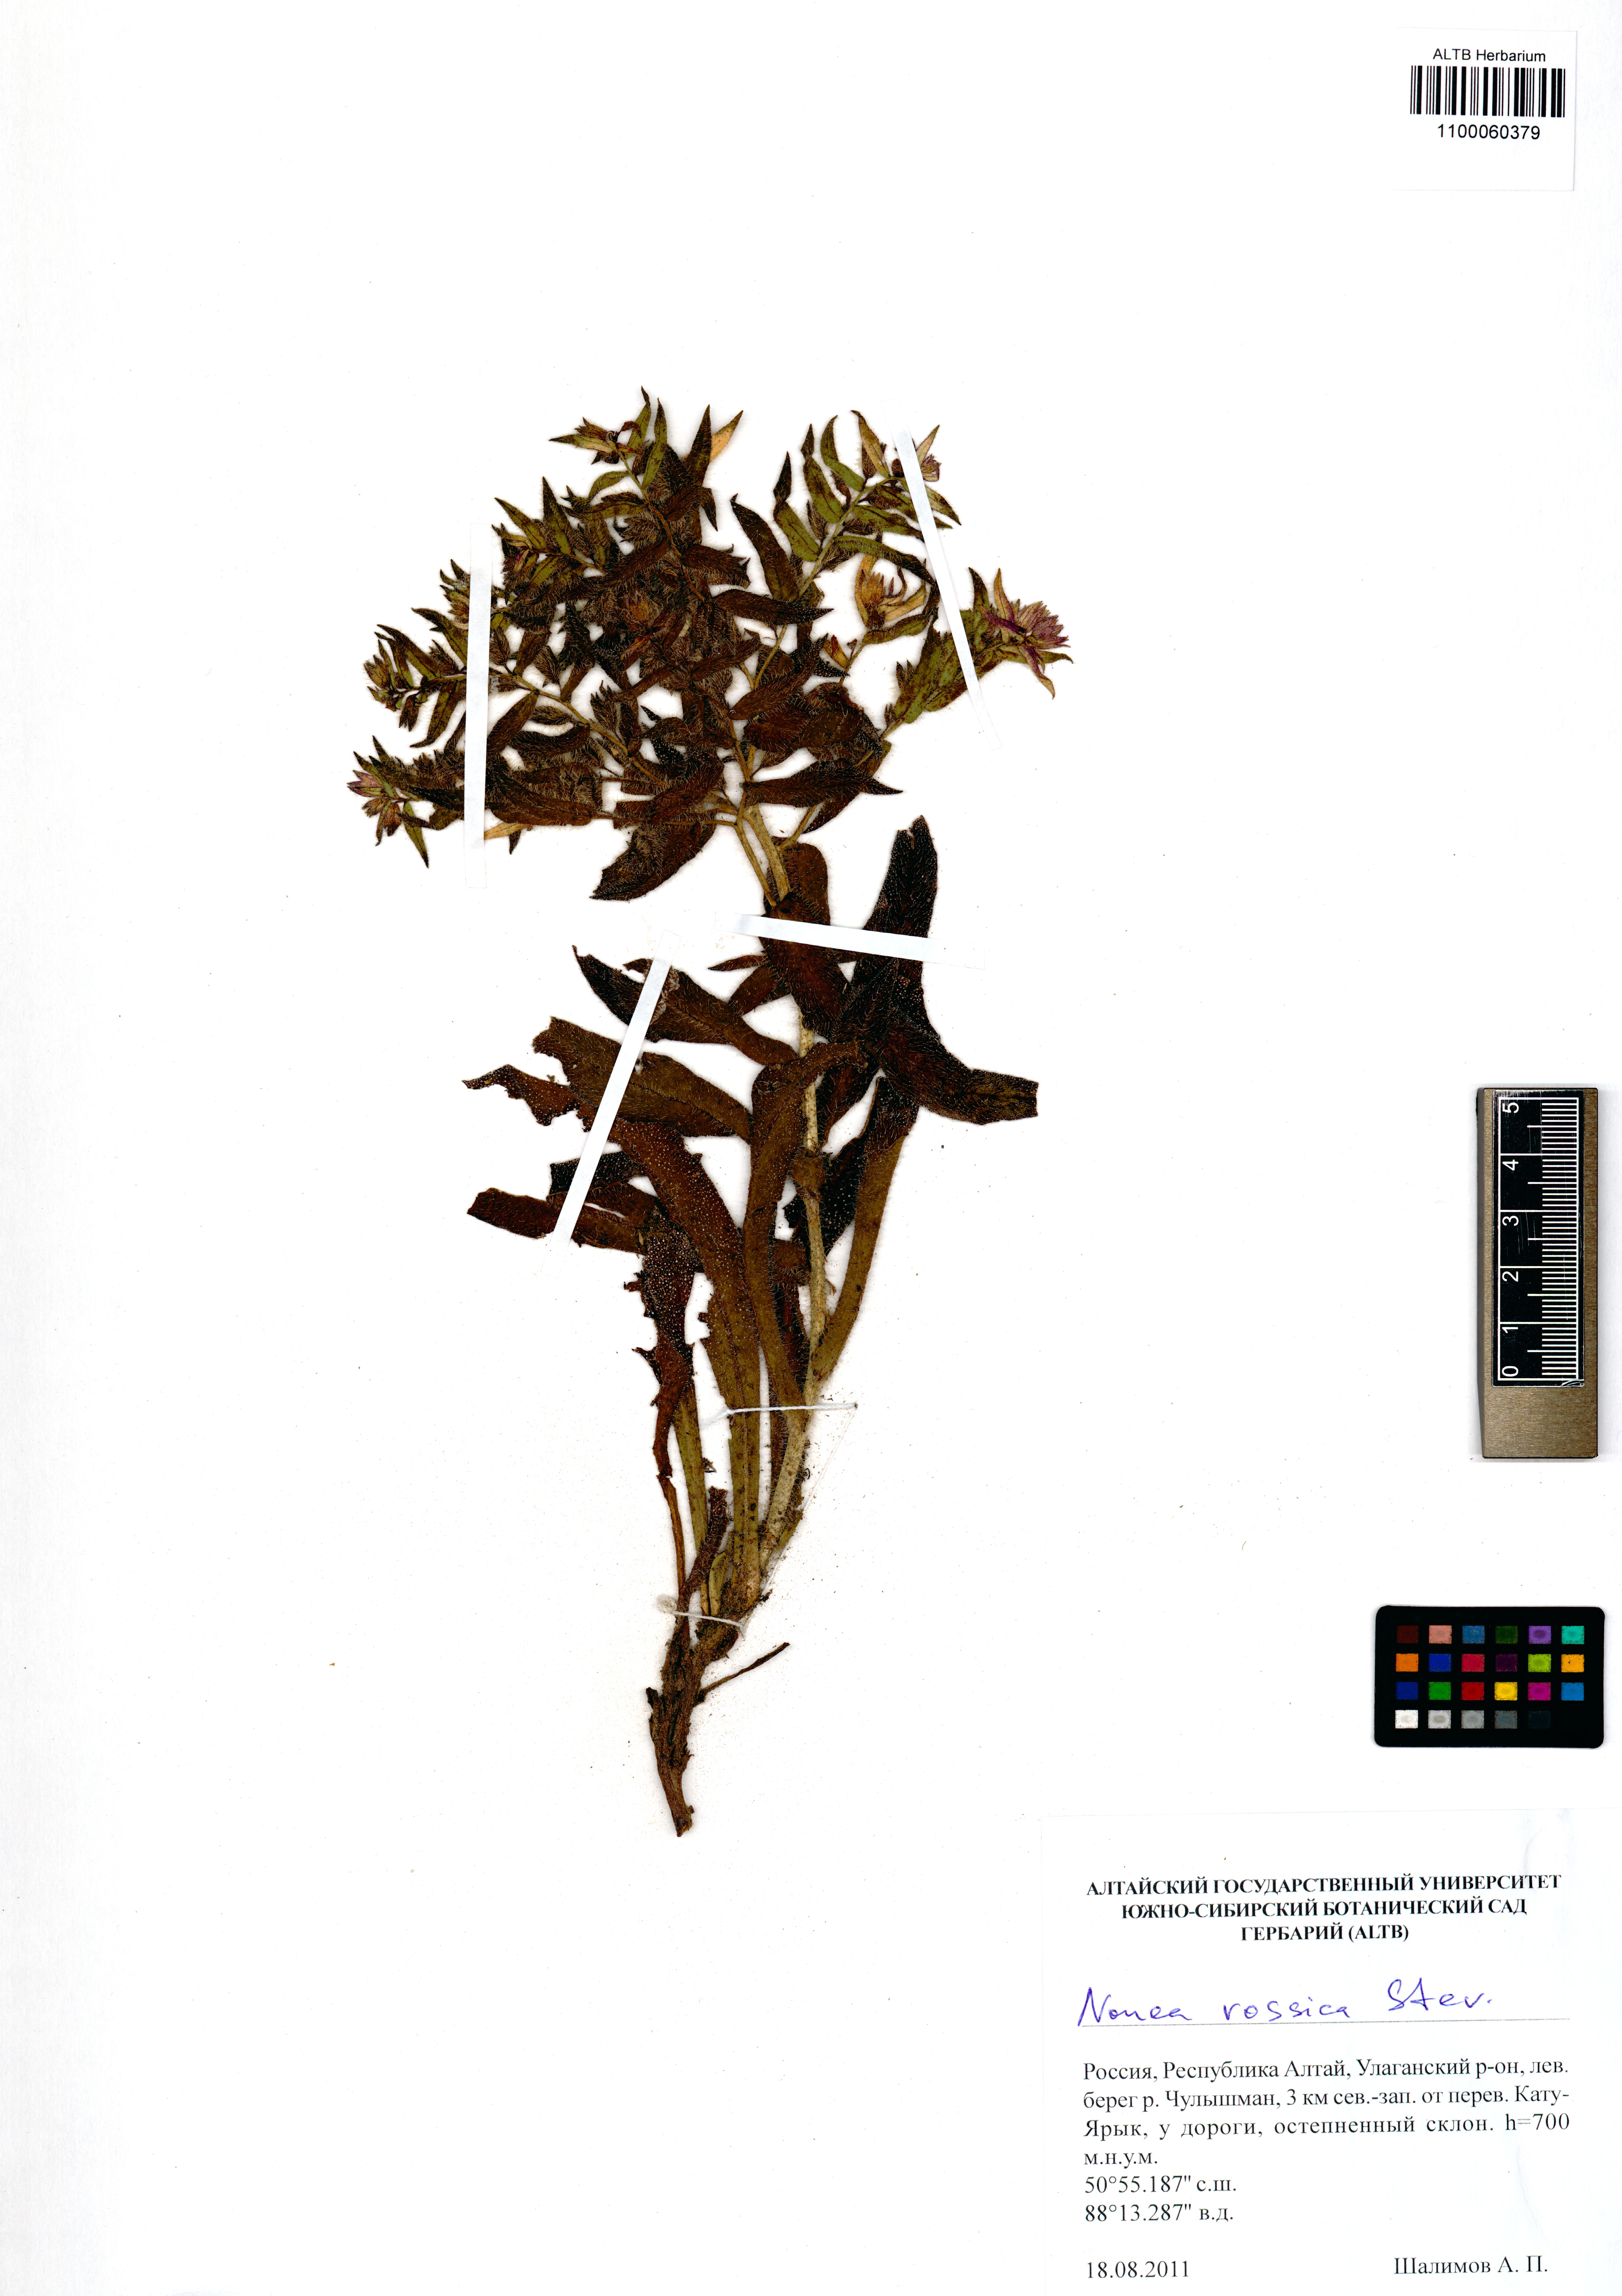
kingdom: Plantae
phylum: Tracheophyta
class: Magnoliopsida
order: Boraginales
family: Boraginaceae
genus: Nonea
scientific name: Nonea pulla
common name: Brown nonea
